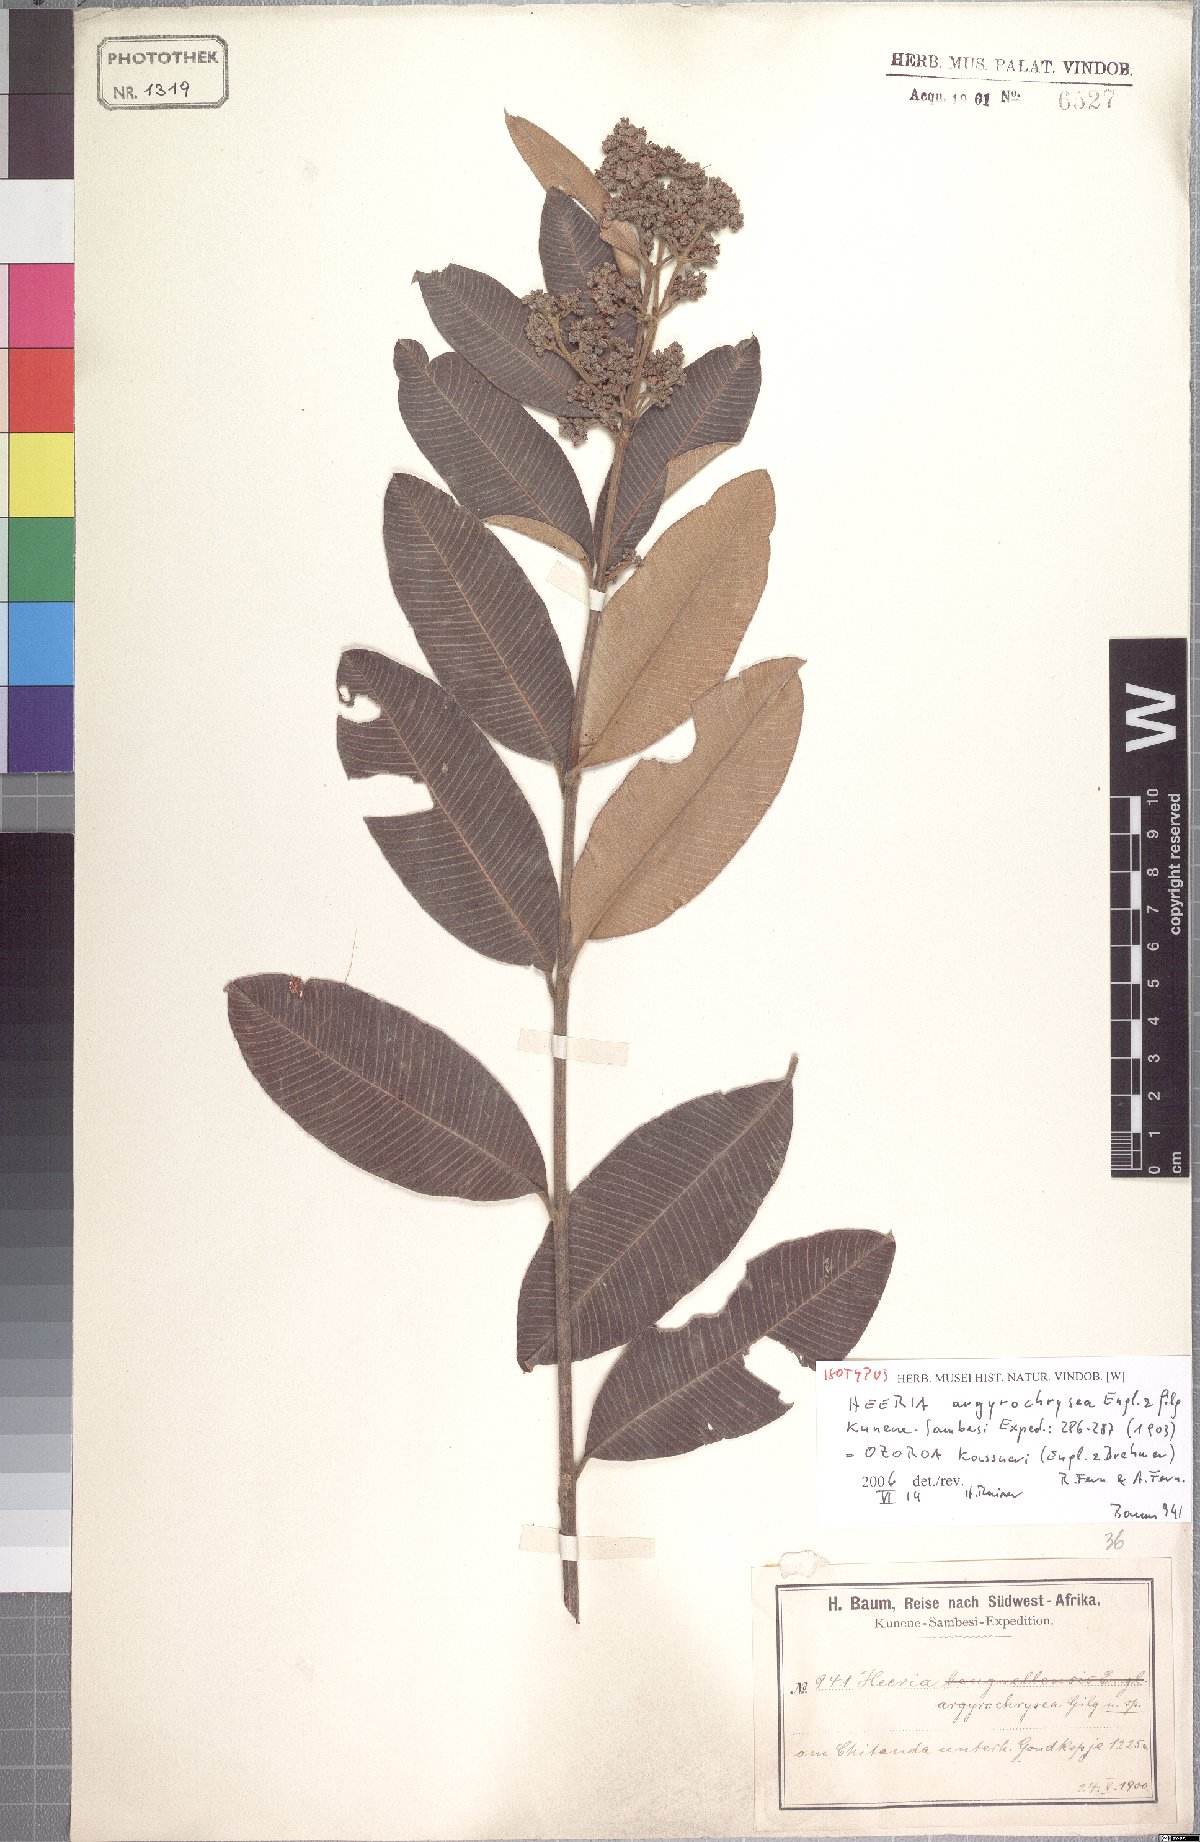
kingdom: Plantae
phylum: Tracheophyta
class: Magnoliopsida
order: Sapindales
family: Anacardiaceae
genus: Ozoroa
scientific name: Ozoroa kassneri
